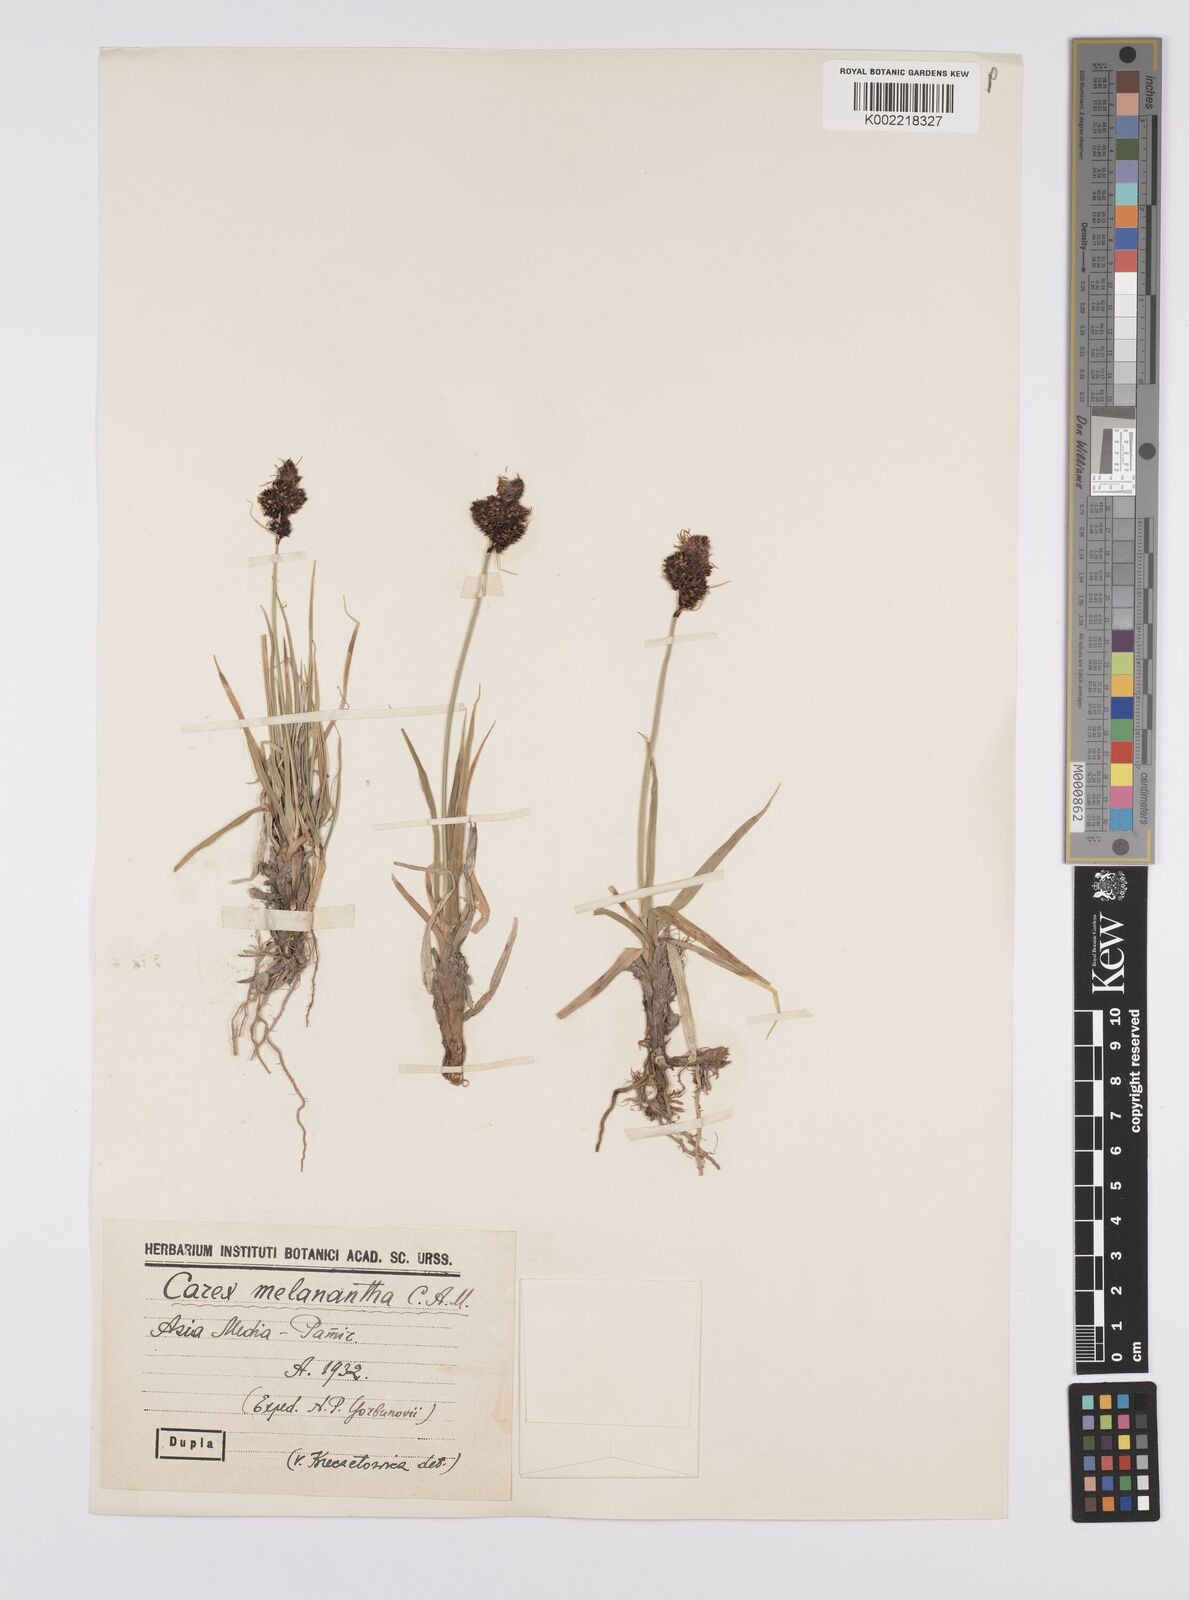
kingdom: Plantae
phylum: Tracheophyta
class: Liliopsida
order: Poales
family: Cyperaceae
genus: Carex
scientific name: Carex melanantha
